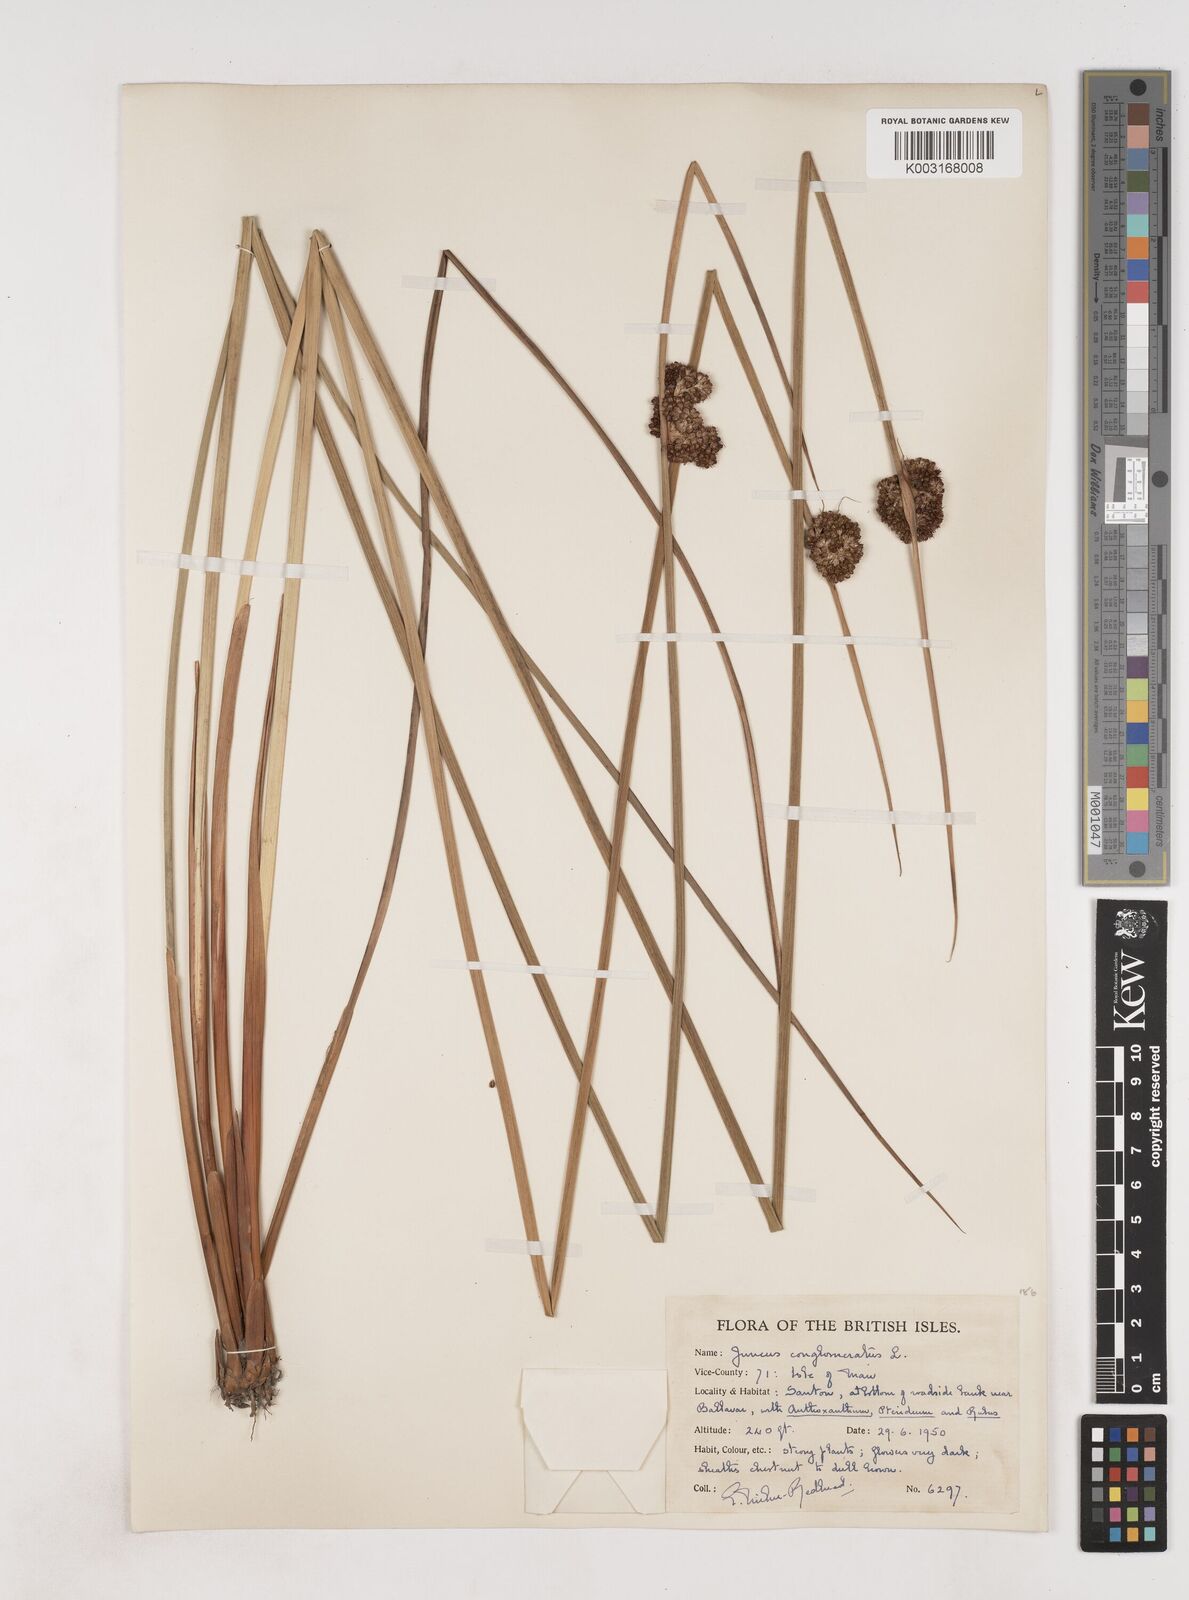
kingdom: Plantae
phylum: Tracheophyta
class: Liliopsida
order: Poales
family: Juncaceae
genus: Juncus
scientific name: Juncus conglomeratus
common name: Compact rush
